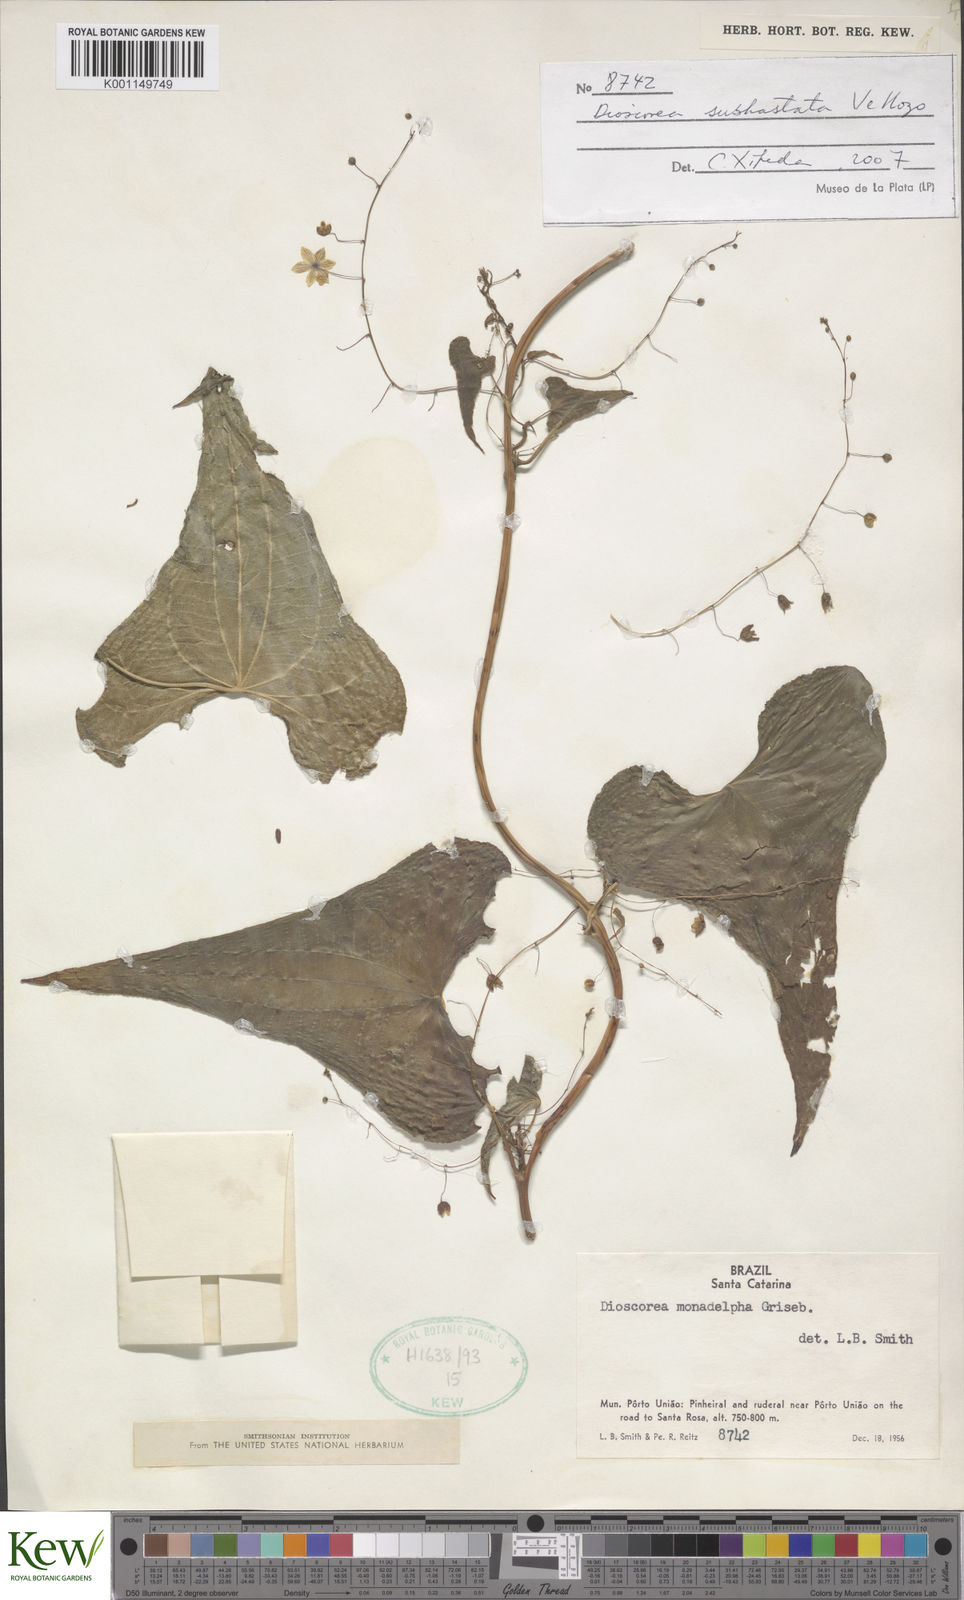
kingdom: Plantae
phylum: Tracheophyta
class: Liliopsida
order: Dioscoreales
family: Dioscoreaceae
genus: Dioscorea
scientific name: Dioscorea monadelpha
